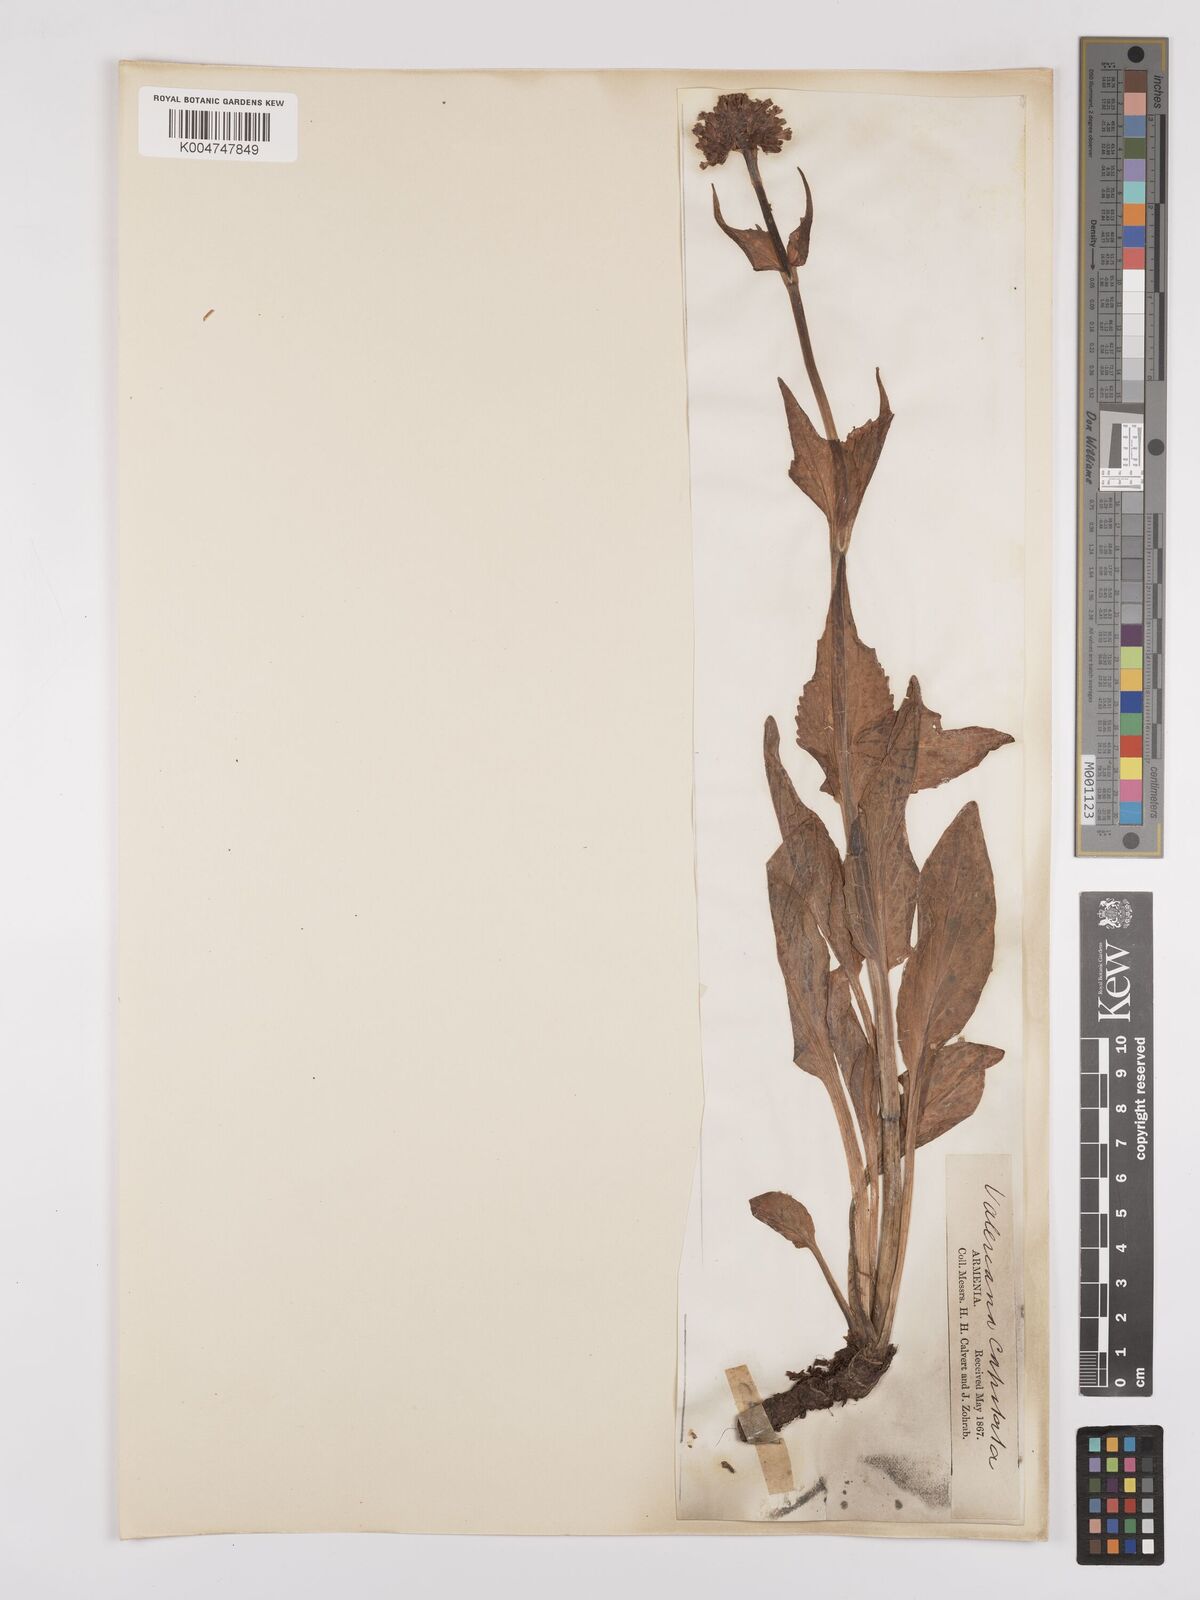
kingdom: Plantae
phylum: Tracheophyta
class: Magnoliopsida
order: Dipsacales
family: Caprifoliaceae
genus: Valeriana
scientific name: Valeriana alpestris
